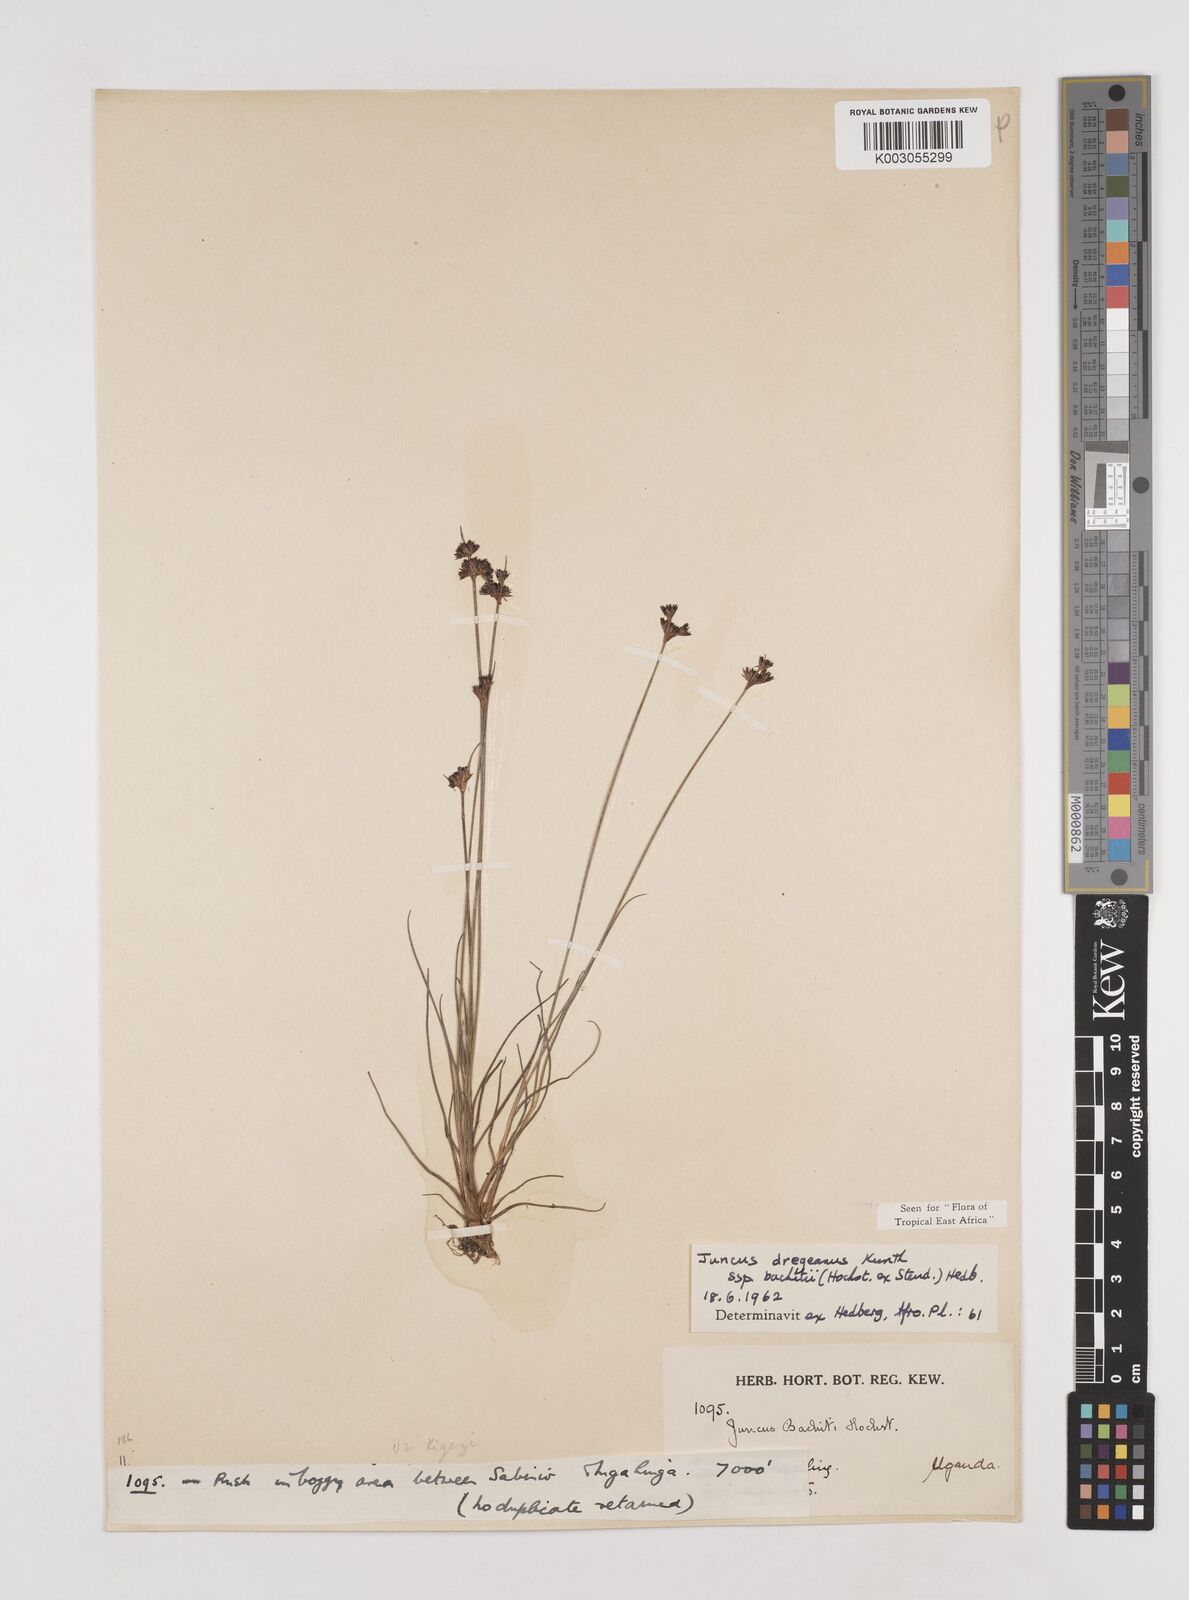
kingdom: Plantae
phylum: Tracheophyta
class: Liliopsida
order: Poales
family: Juncaceae
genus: Juncus
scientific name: Juncus dregeanus
